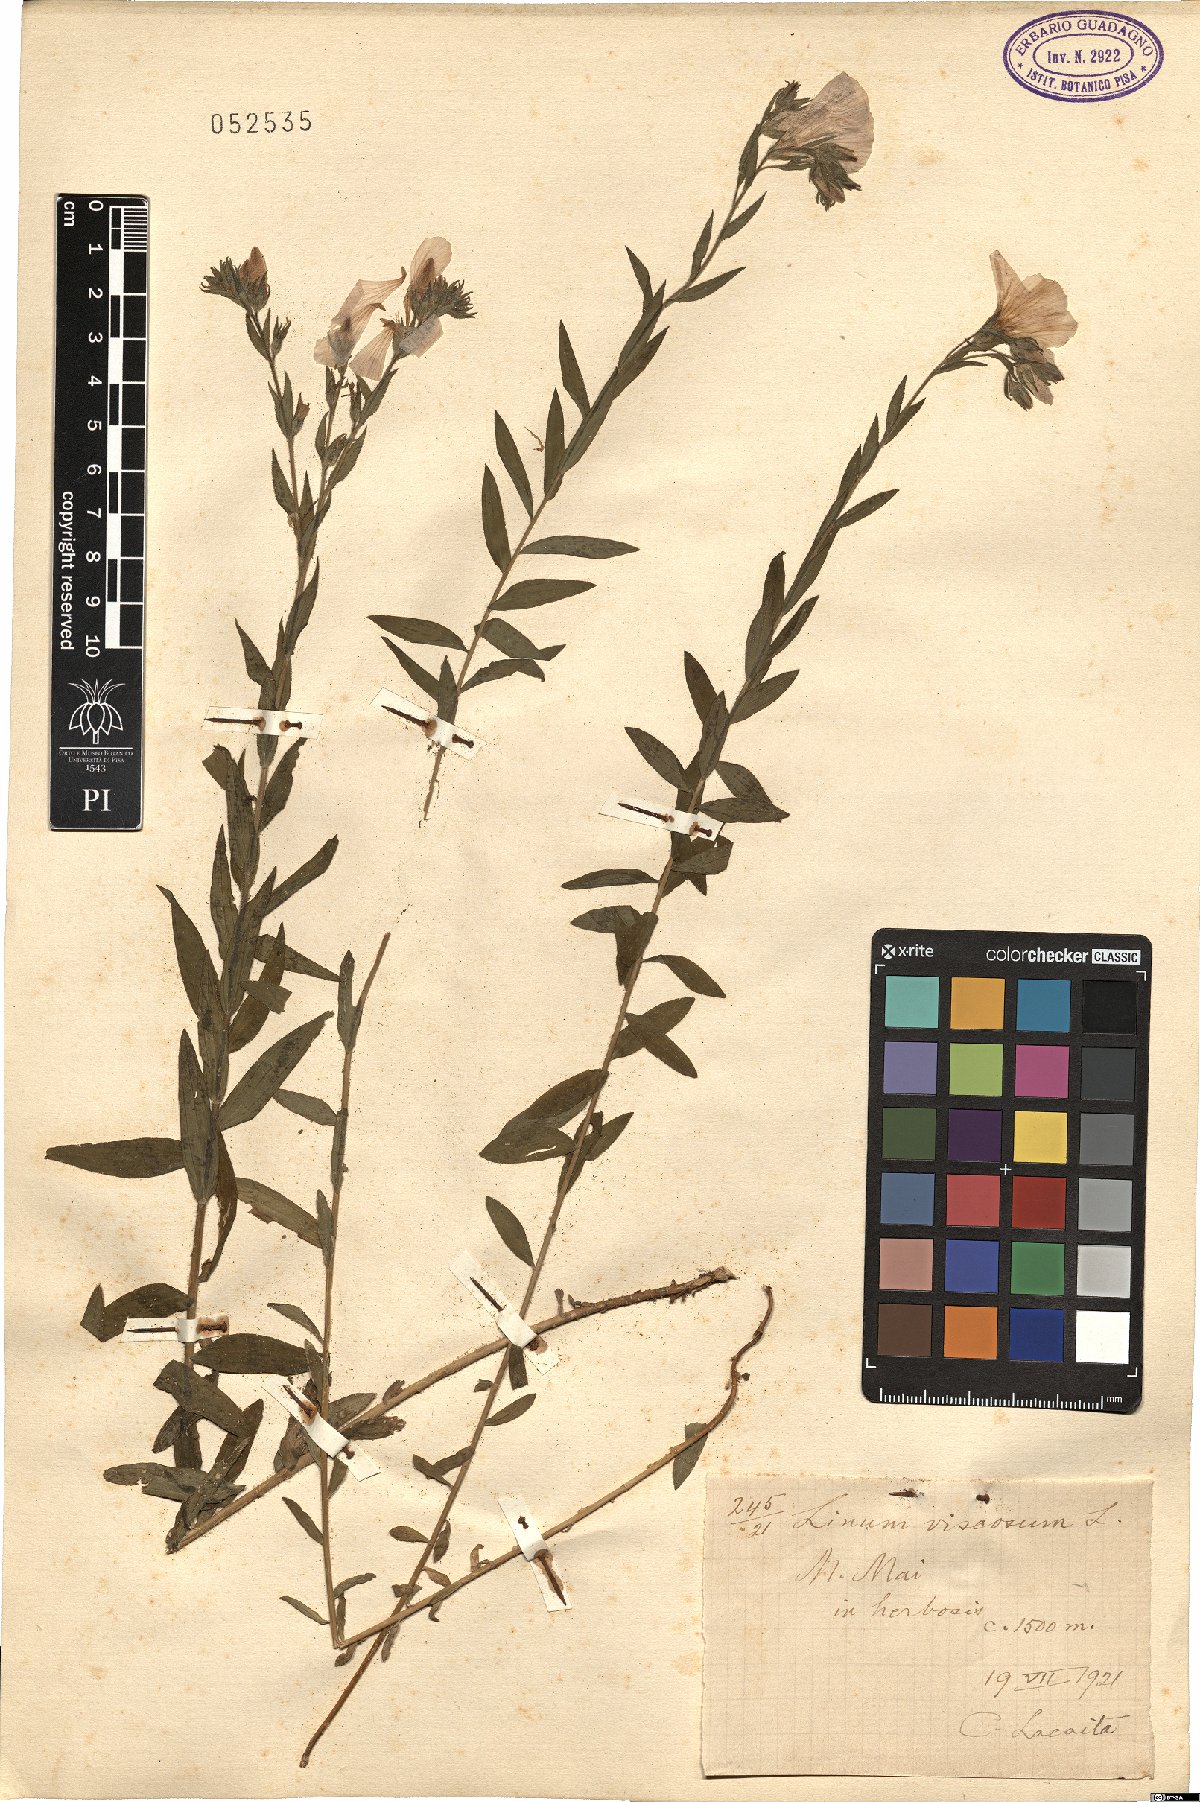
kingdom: Plantae
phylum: Tracheophyta
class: Magnoliopsida
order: Malpighiales
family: Linaceae
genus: Linum
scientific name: Linum viscosum
